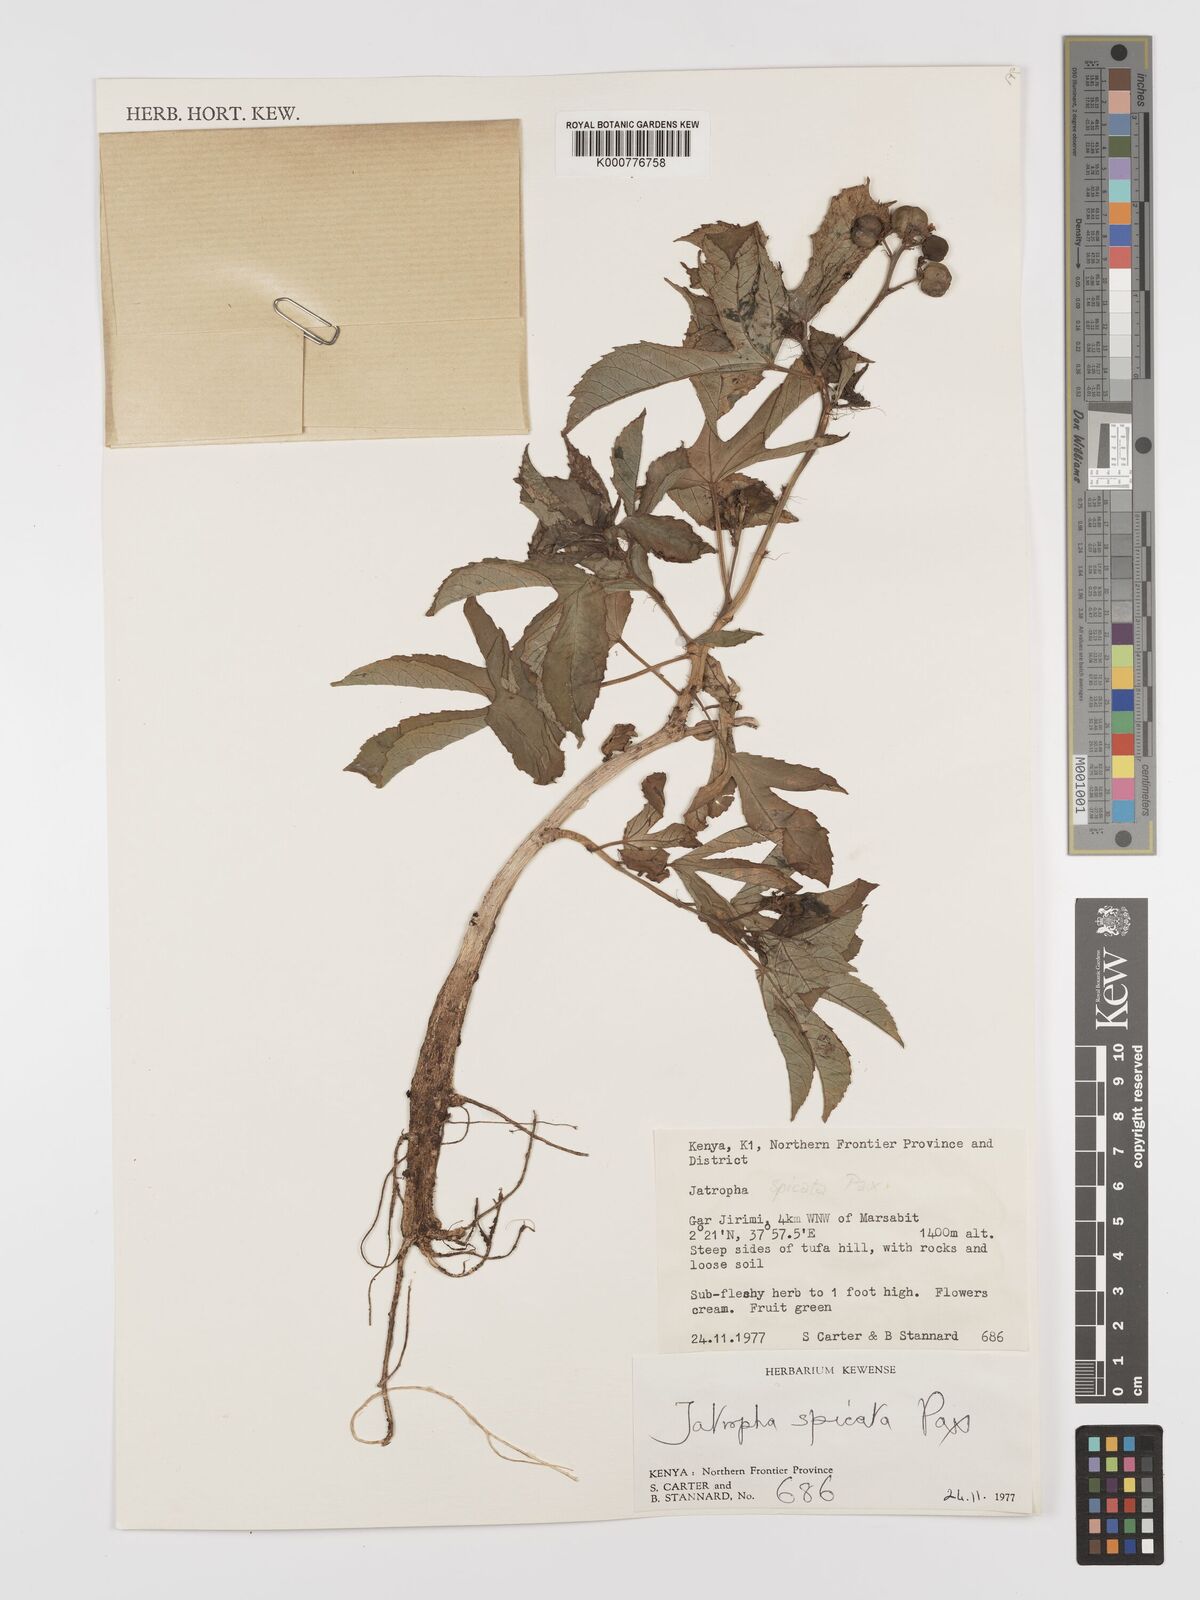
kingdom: Plantae
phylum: Tracheophyta
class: Magnoliopsida
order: Malpighiales
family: Euphorbiaceae
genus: Jatropha
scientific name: Jatropha spicata
